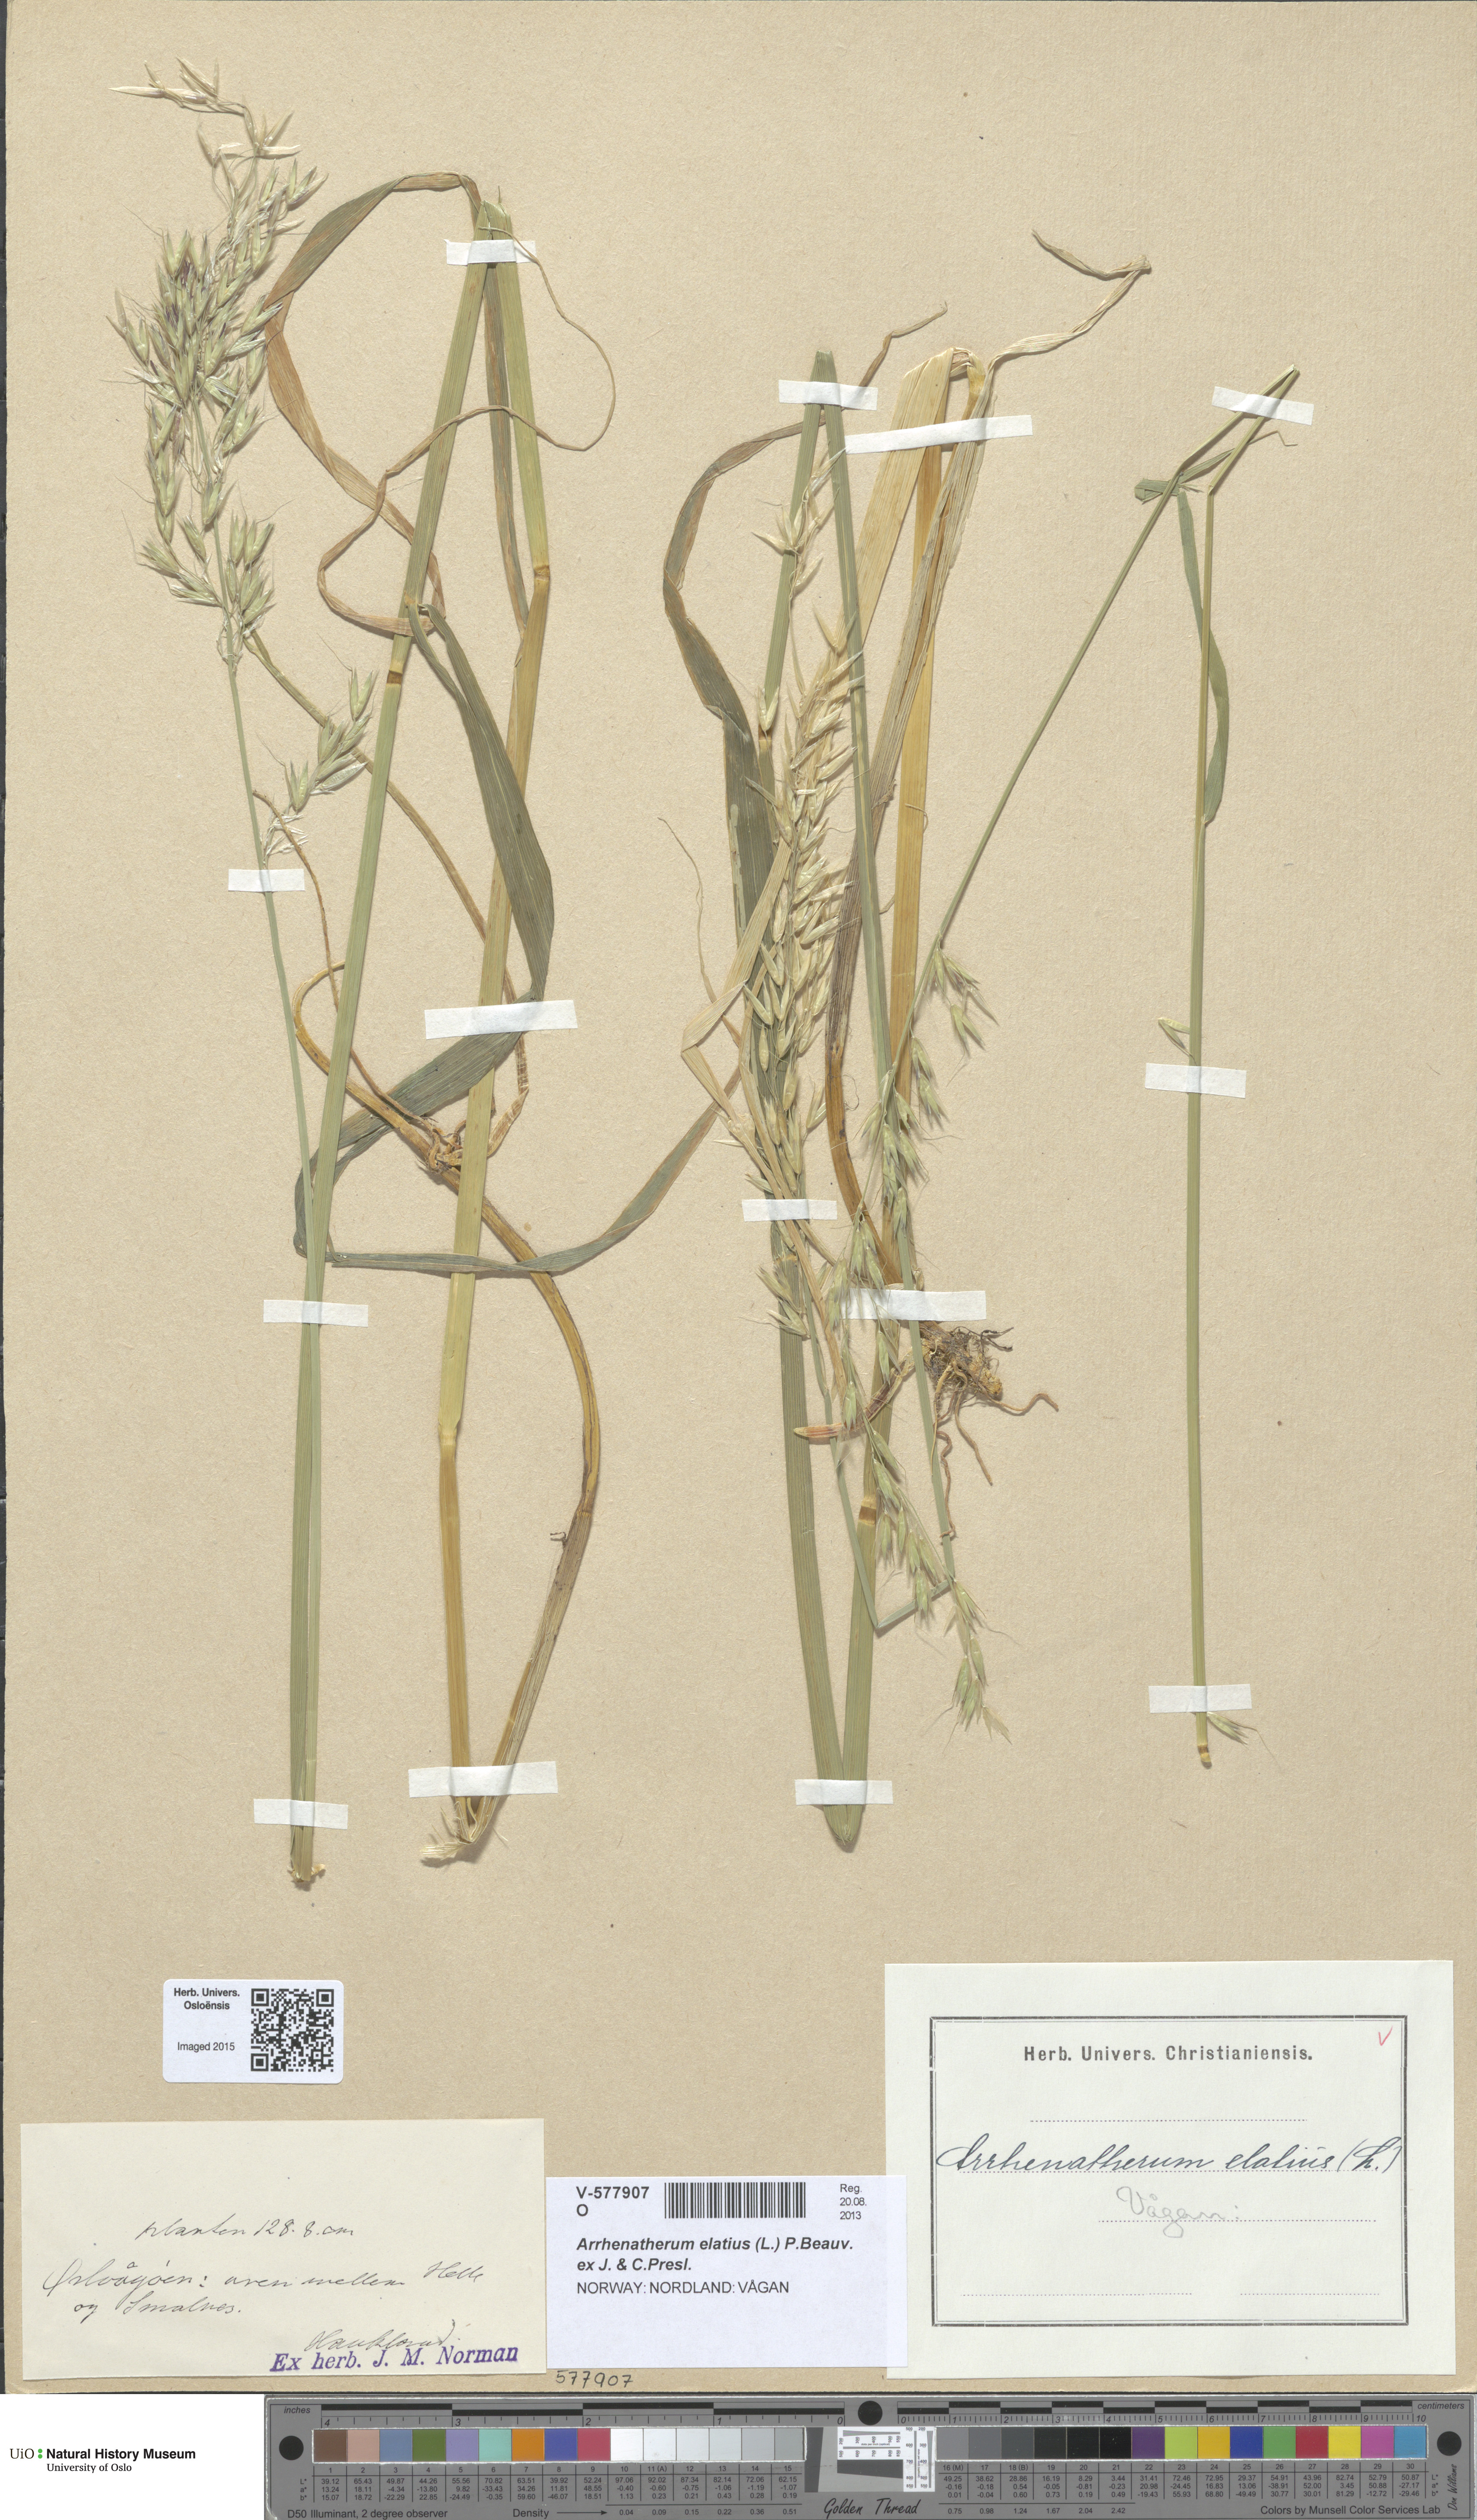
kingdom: Plantae
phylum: Tracheophyta
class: Liliopsida
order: Poales
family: Poaceae
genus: Arrhenatherum
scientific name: Arrhenatherum elatius
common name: Tall oatgrass
